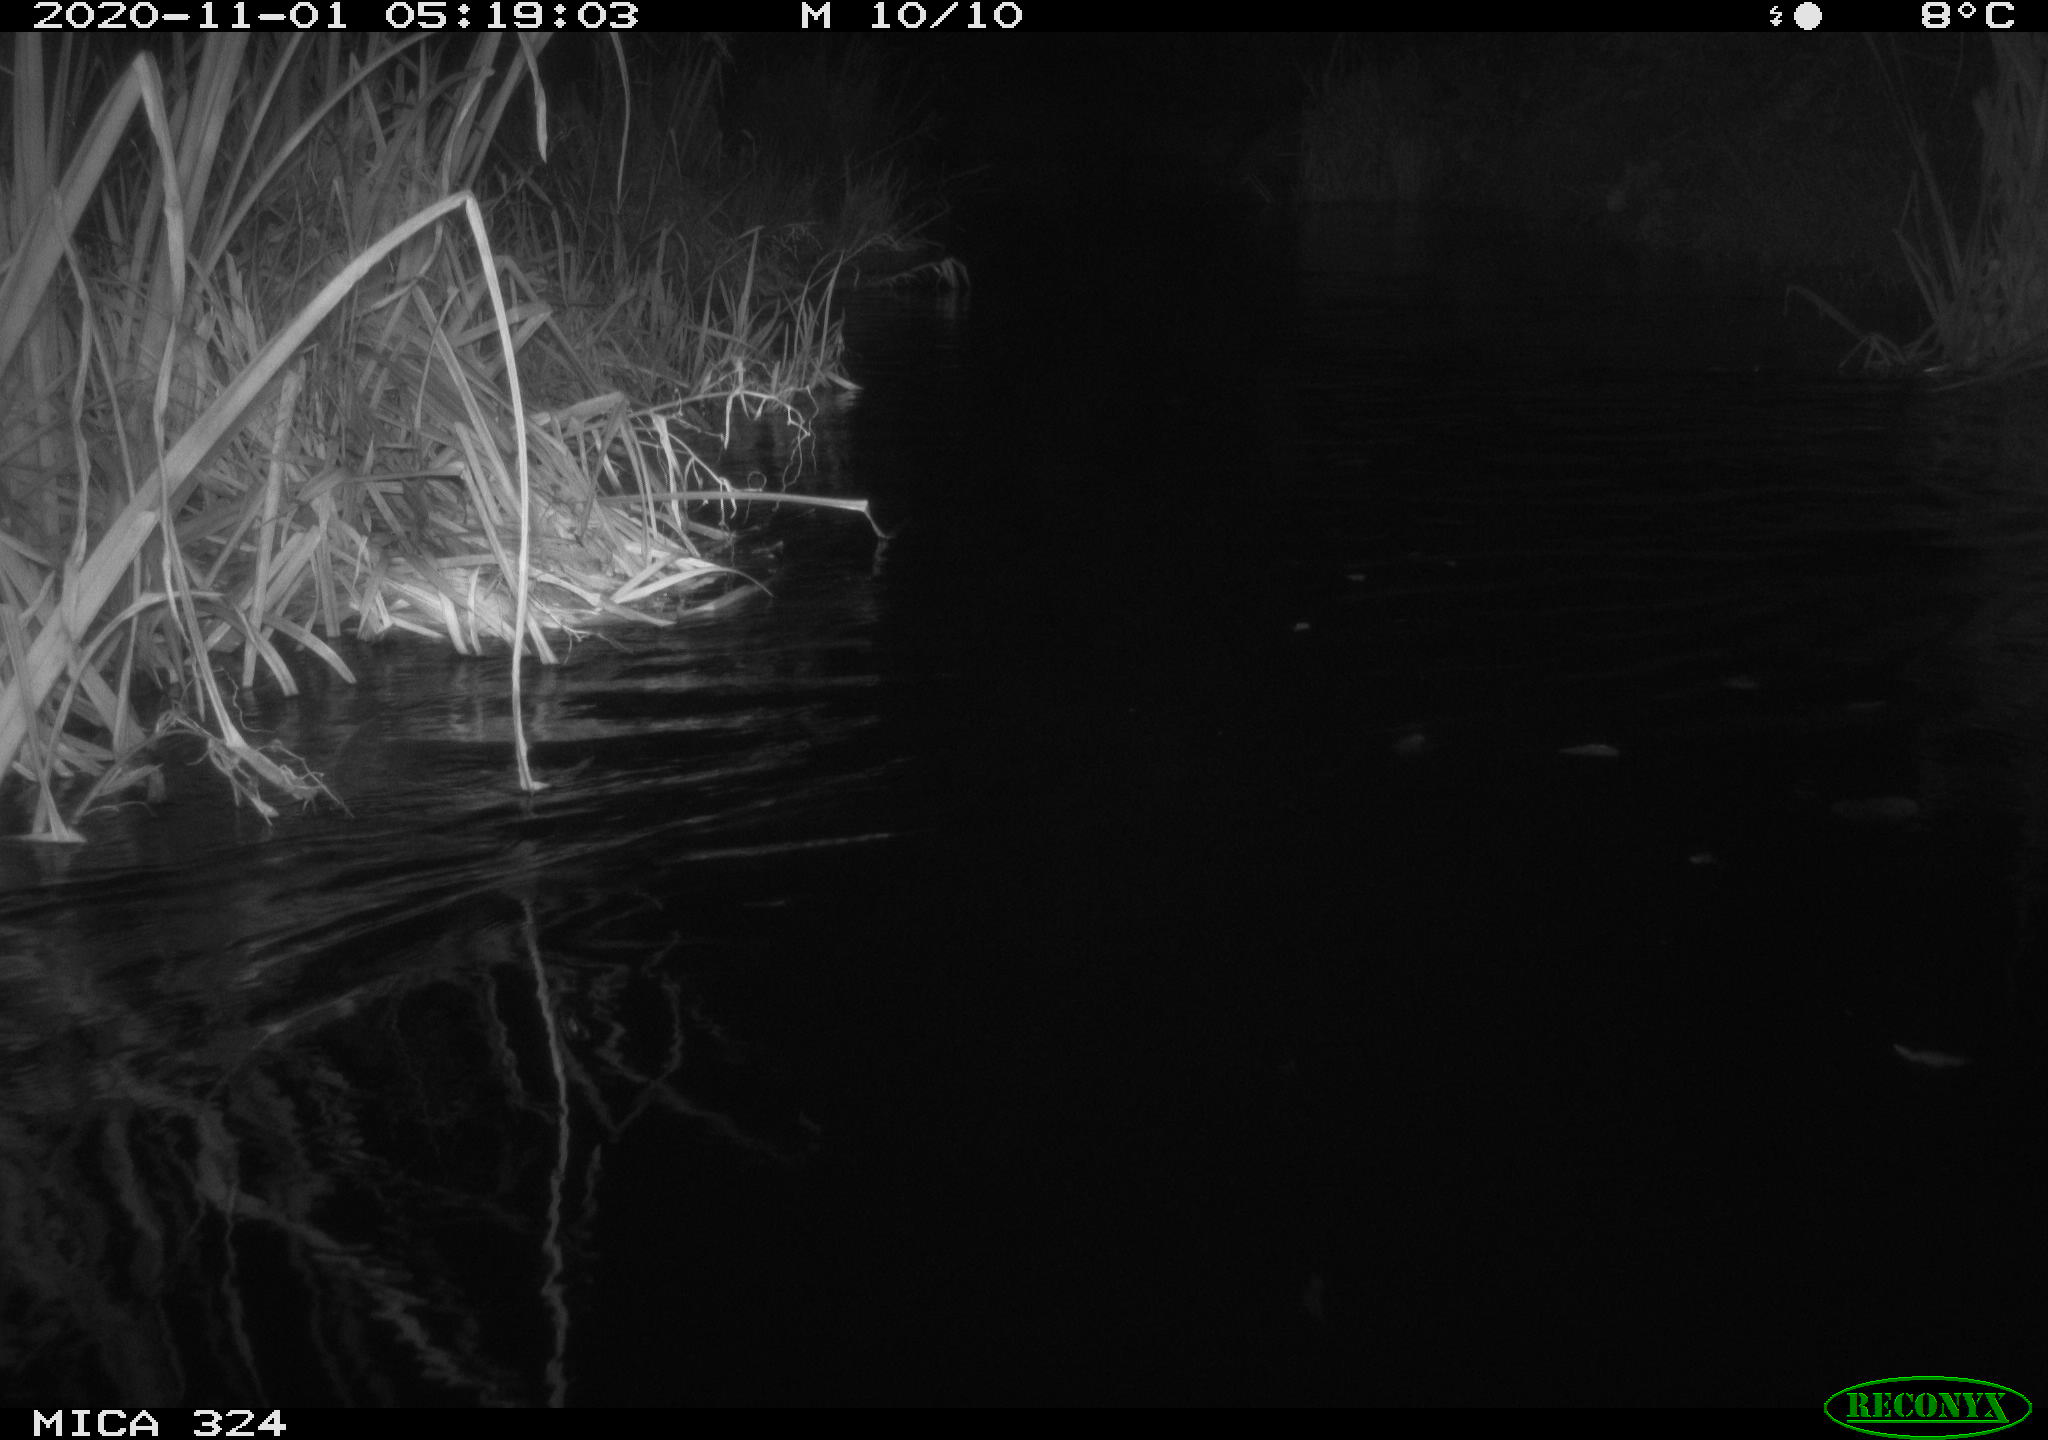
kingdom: Animalia
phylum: Chordata
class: Mammalia
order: Rodentia
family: Myocastoridae
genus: Myocastor
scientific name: Myocastor coypus
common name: Coypu
